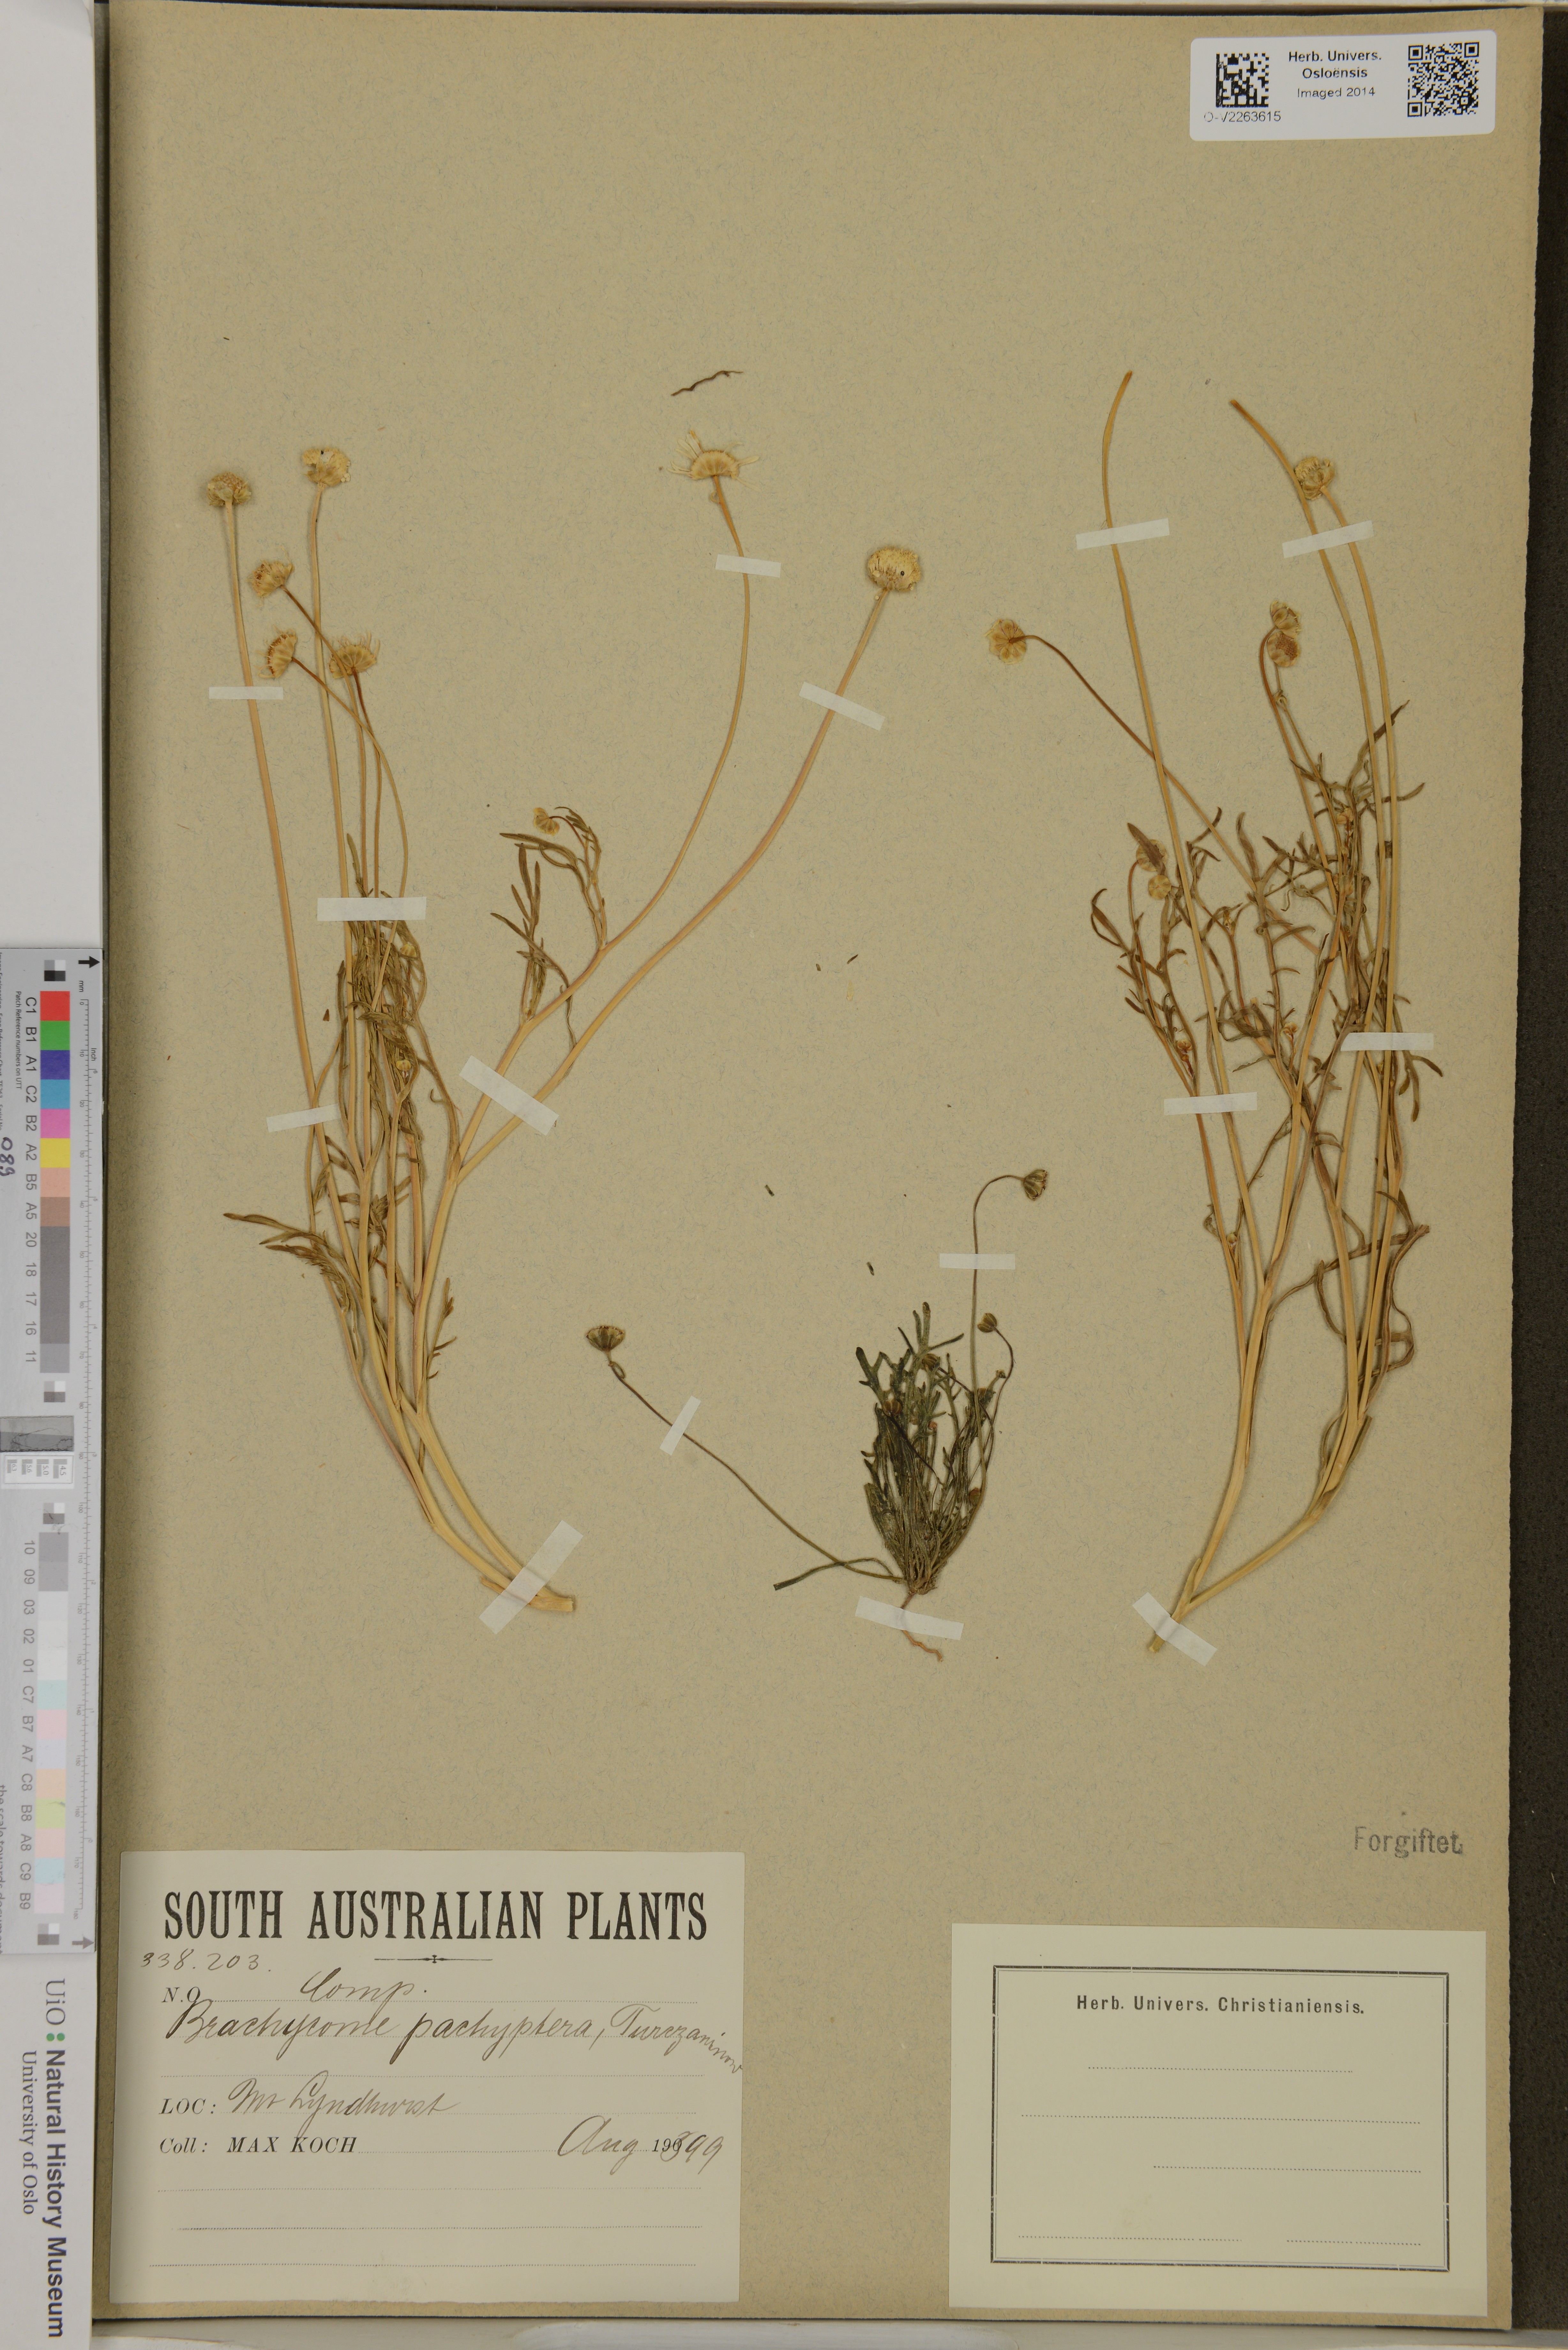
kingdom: Plantae
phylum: Tracheophyta
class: Magnoliopsida
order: Asterales
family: Asteraceae
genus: Brachyscome
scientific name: Brachyscome lineariloba
